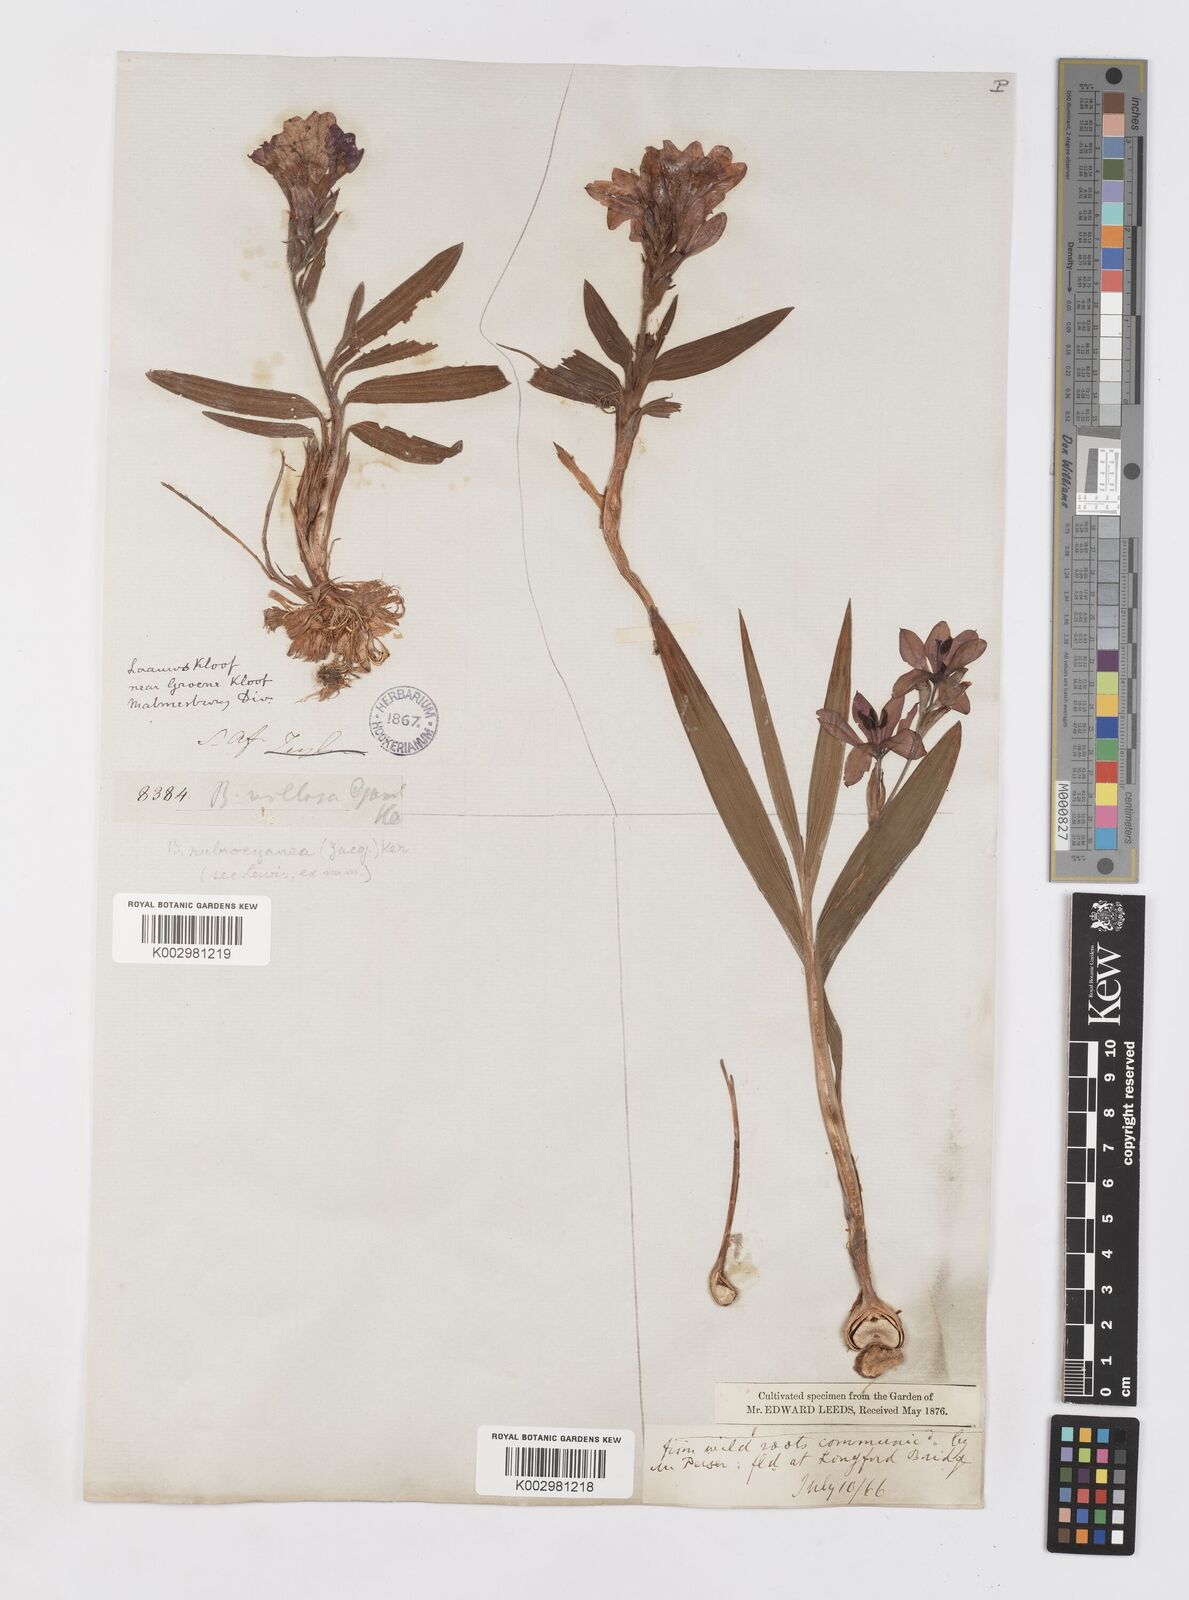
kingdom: Plantae
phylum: Tracheophyta
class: Liliopsida
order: Asparagales
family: Iridaceae
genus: Babiana
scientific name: Babiana rubrocyanea
